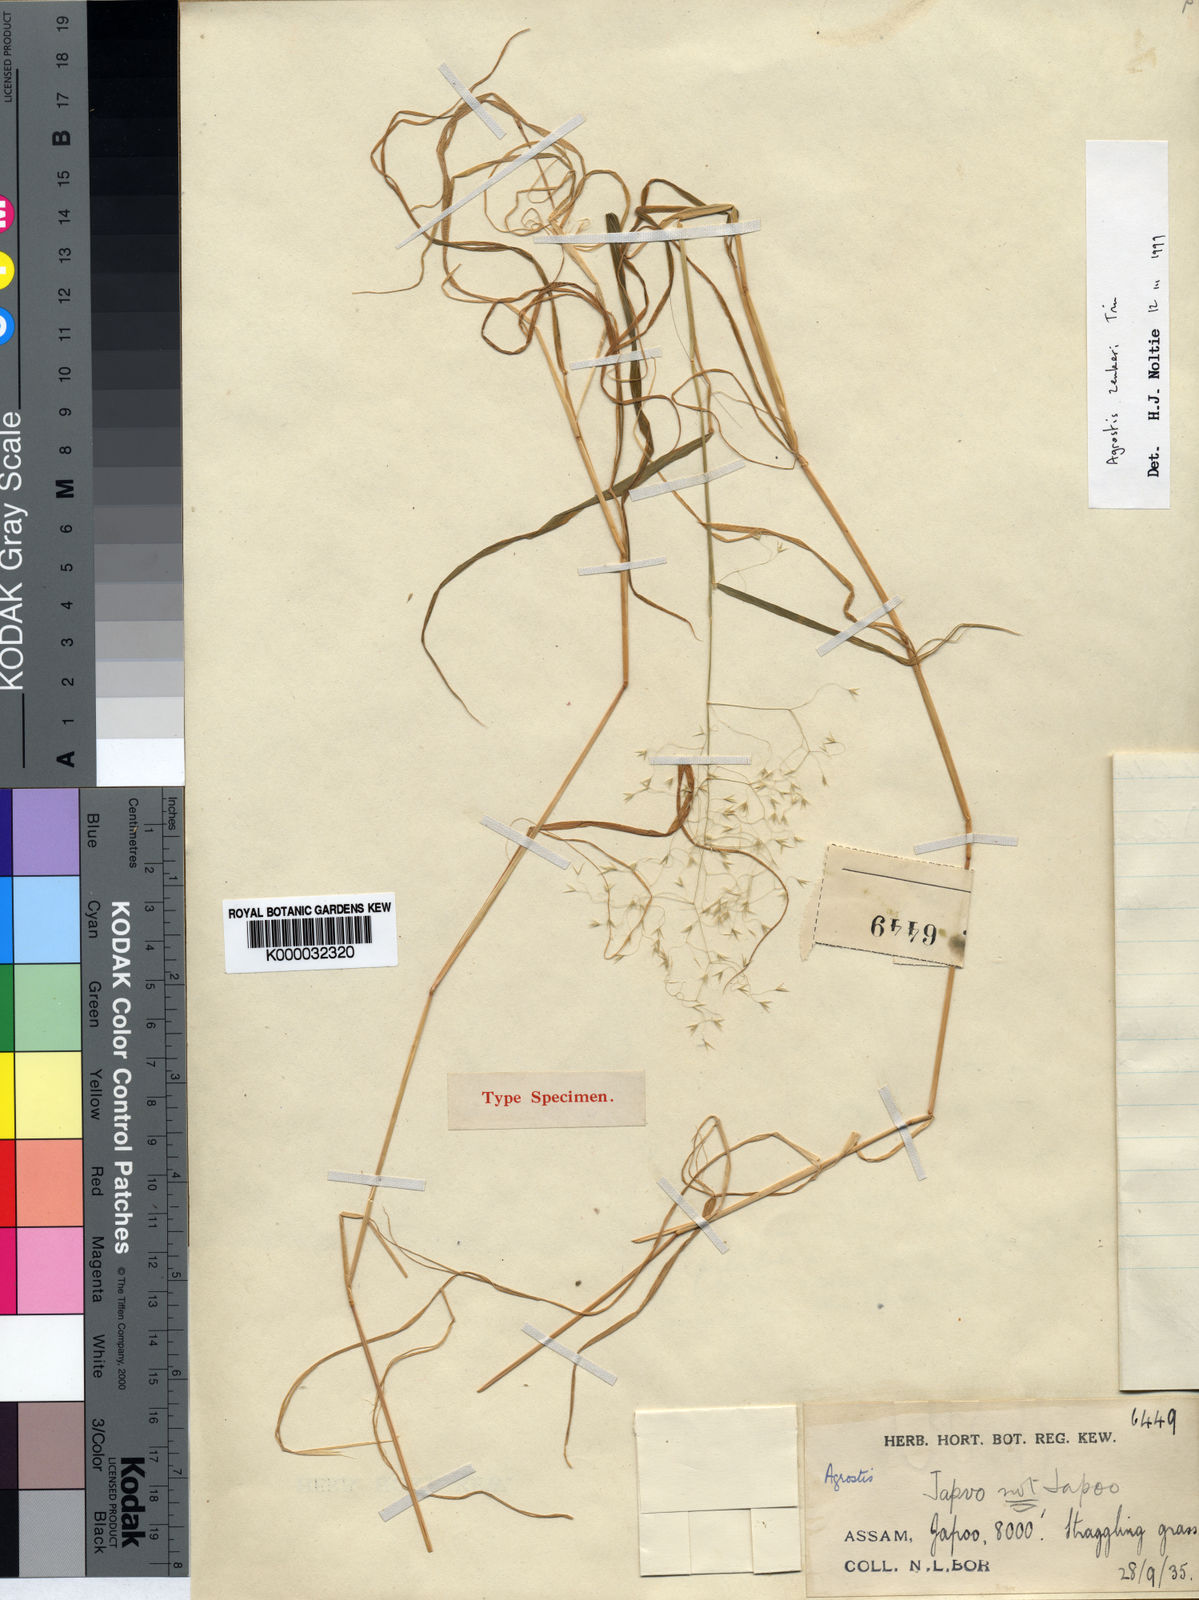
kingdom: Plantae
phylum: Tracheophyta
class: Liliopsida
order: Poales
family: Poaceae
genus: Calamagrostis
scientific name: Calamagrostis abnormis
